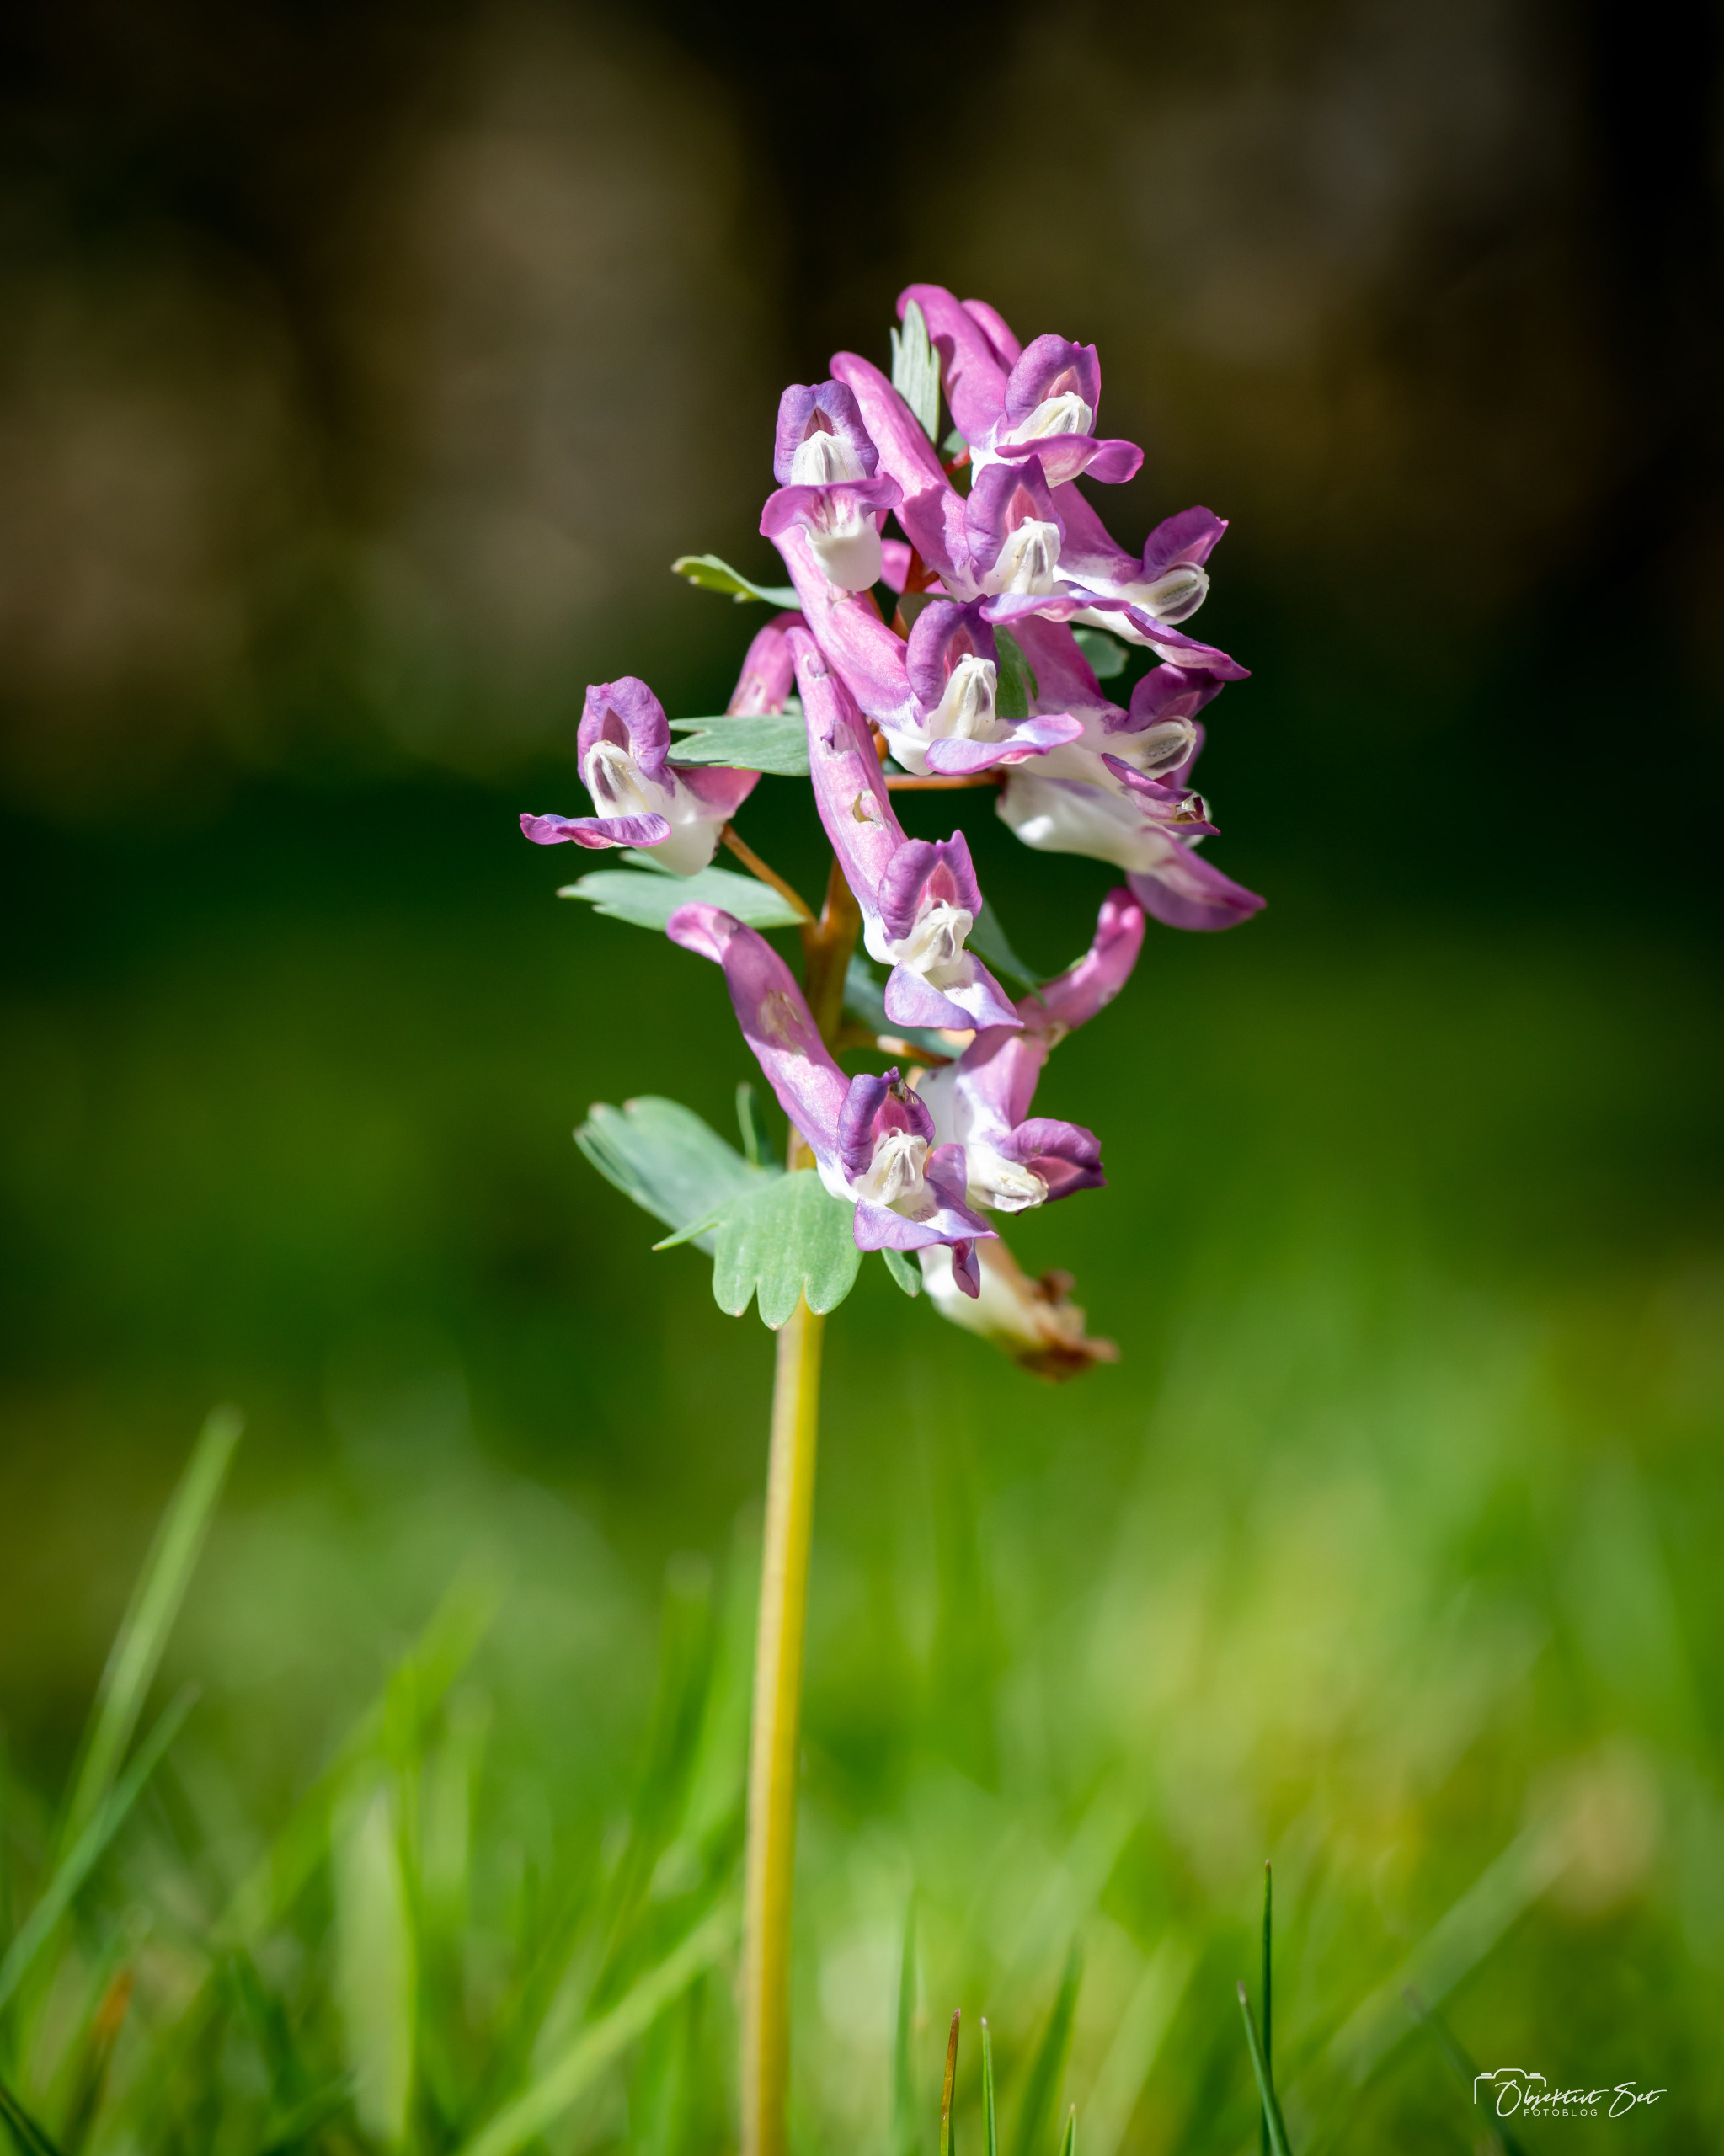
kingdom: Plantae
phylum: Tracheophyta
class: Magnoliopsida
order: Ranunculales
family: Papaveraceae
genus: Corydalis
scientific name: Corydalis solida
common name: Langstilket lærkespore
